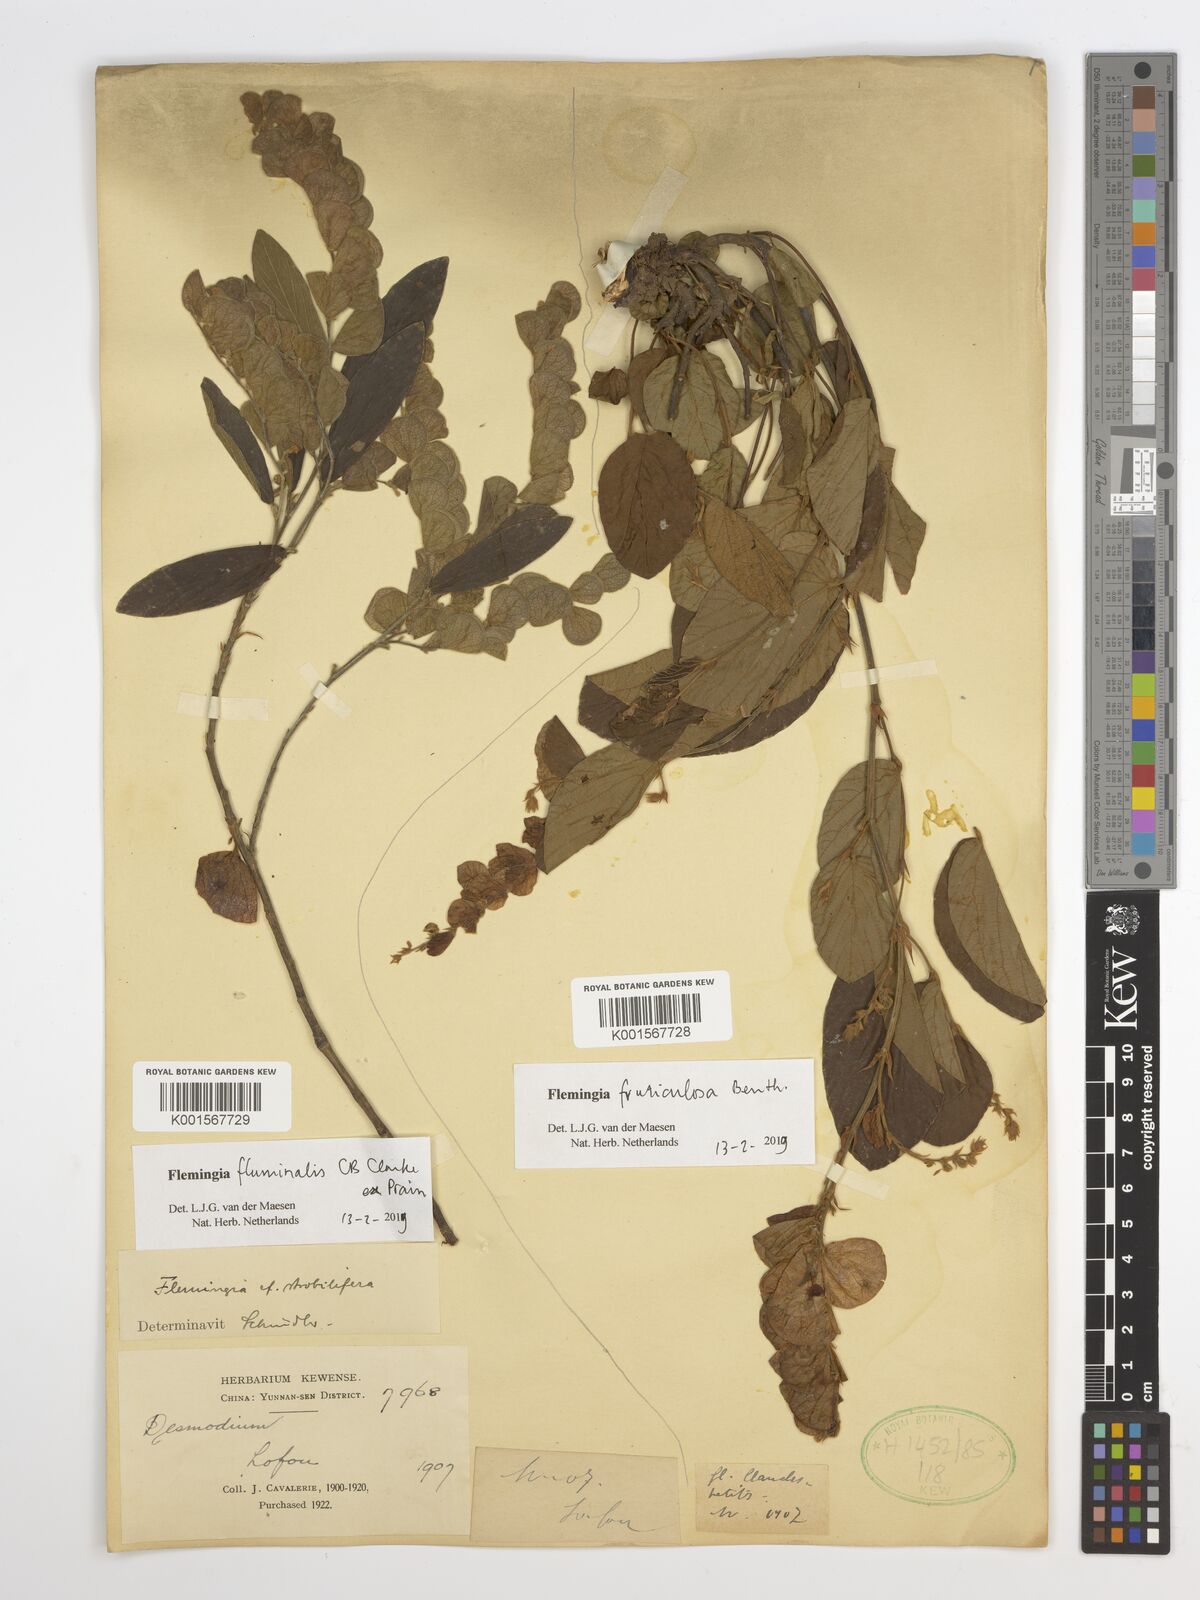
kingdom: Plantae
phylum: Tracheophyta
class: Magnoliopsida
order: Fabales
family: Fabaceae
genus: Flemingia
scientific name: Flemingia fluminalis
